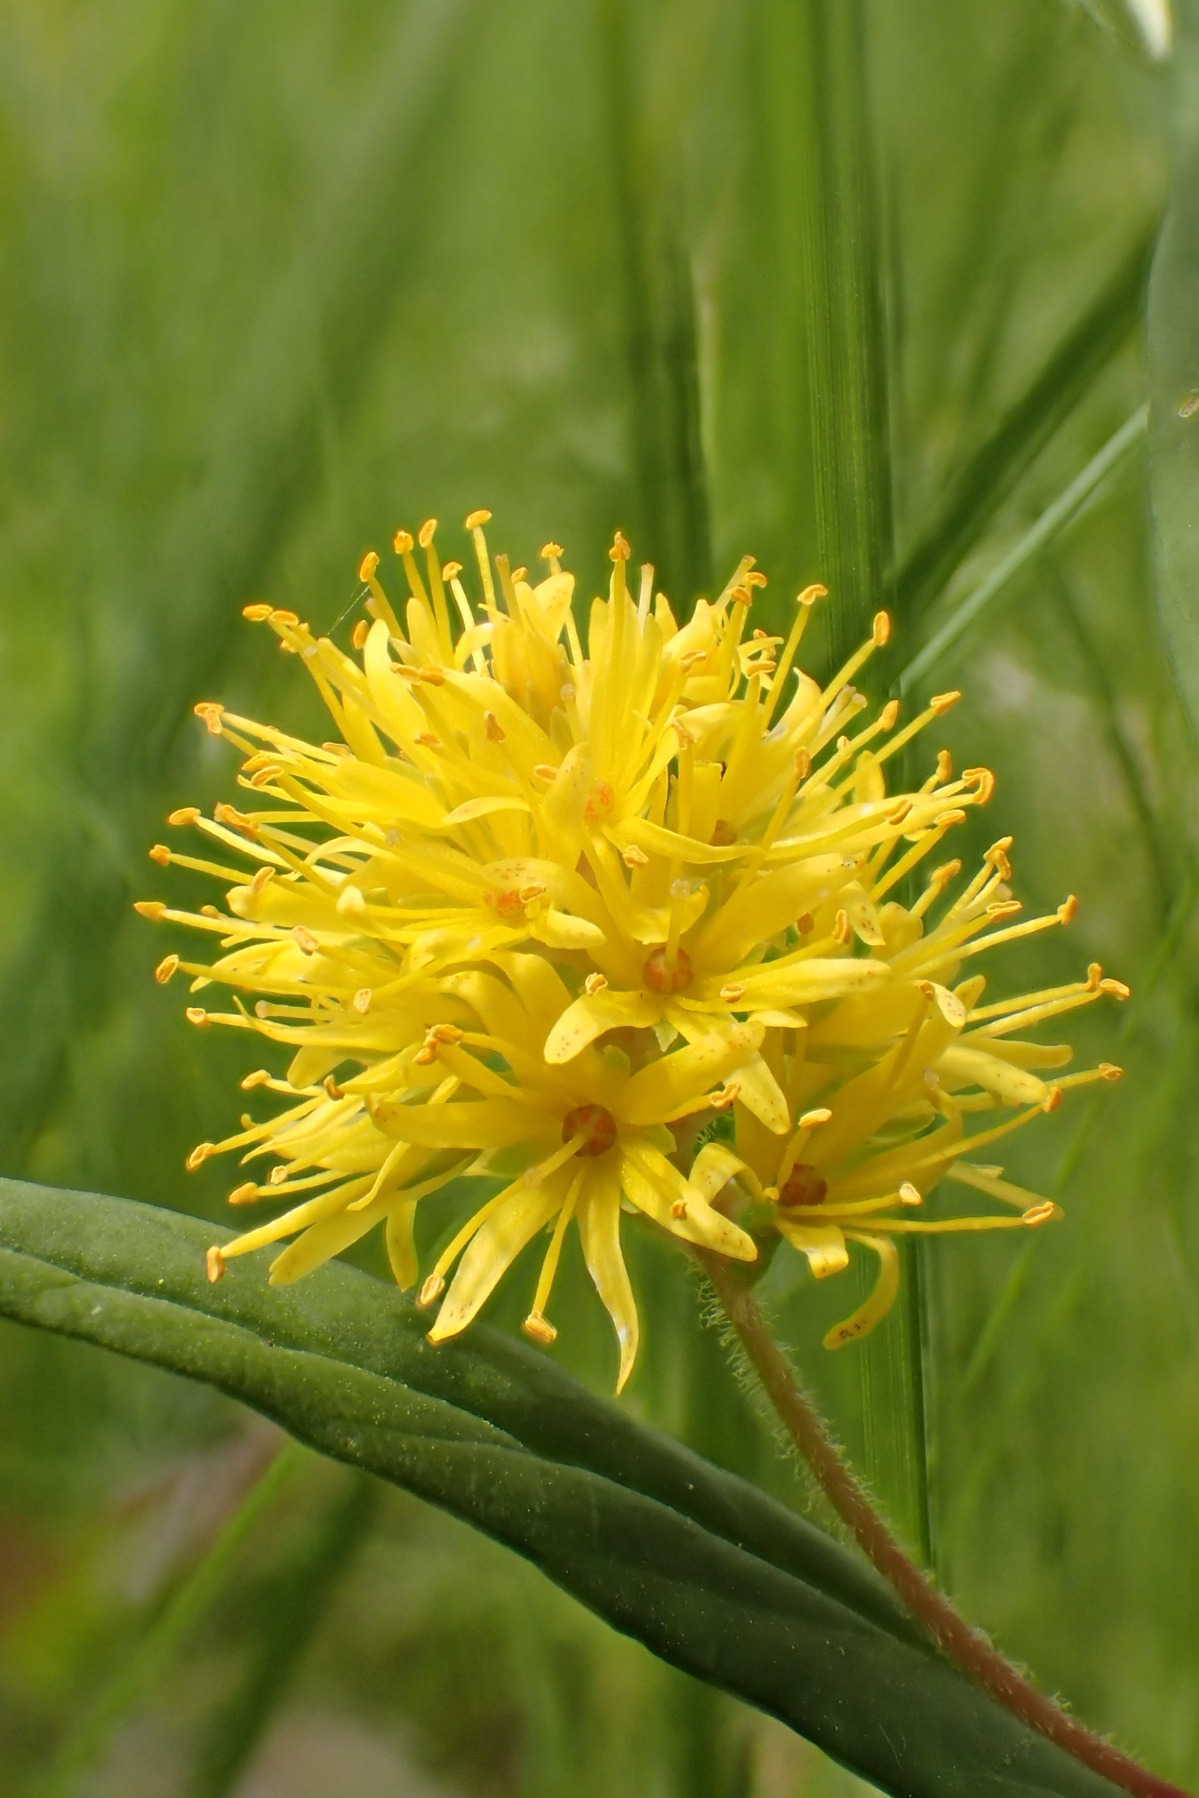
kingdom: Plantae
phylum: Tracheophyta
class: Magnoliopsida
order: Ericales
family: Primulaceae
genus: Lysimachia
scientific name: Lysimachia thyrsiflora
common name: Dusk-fredløs
